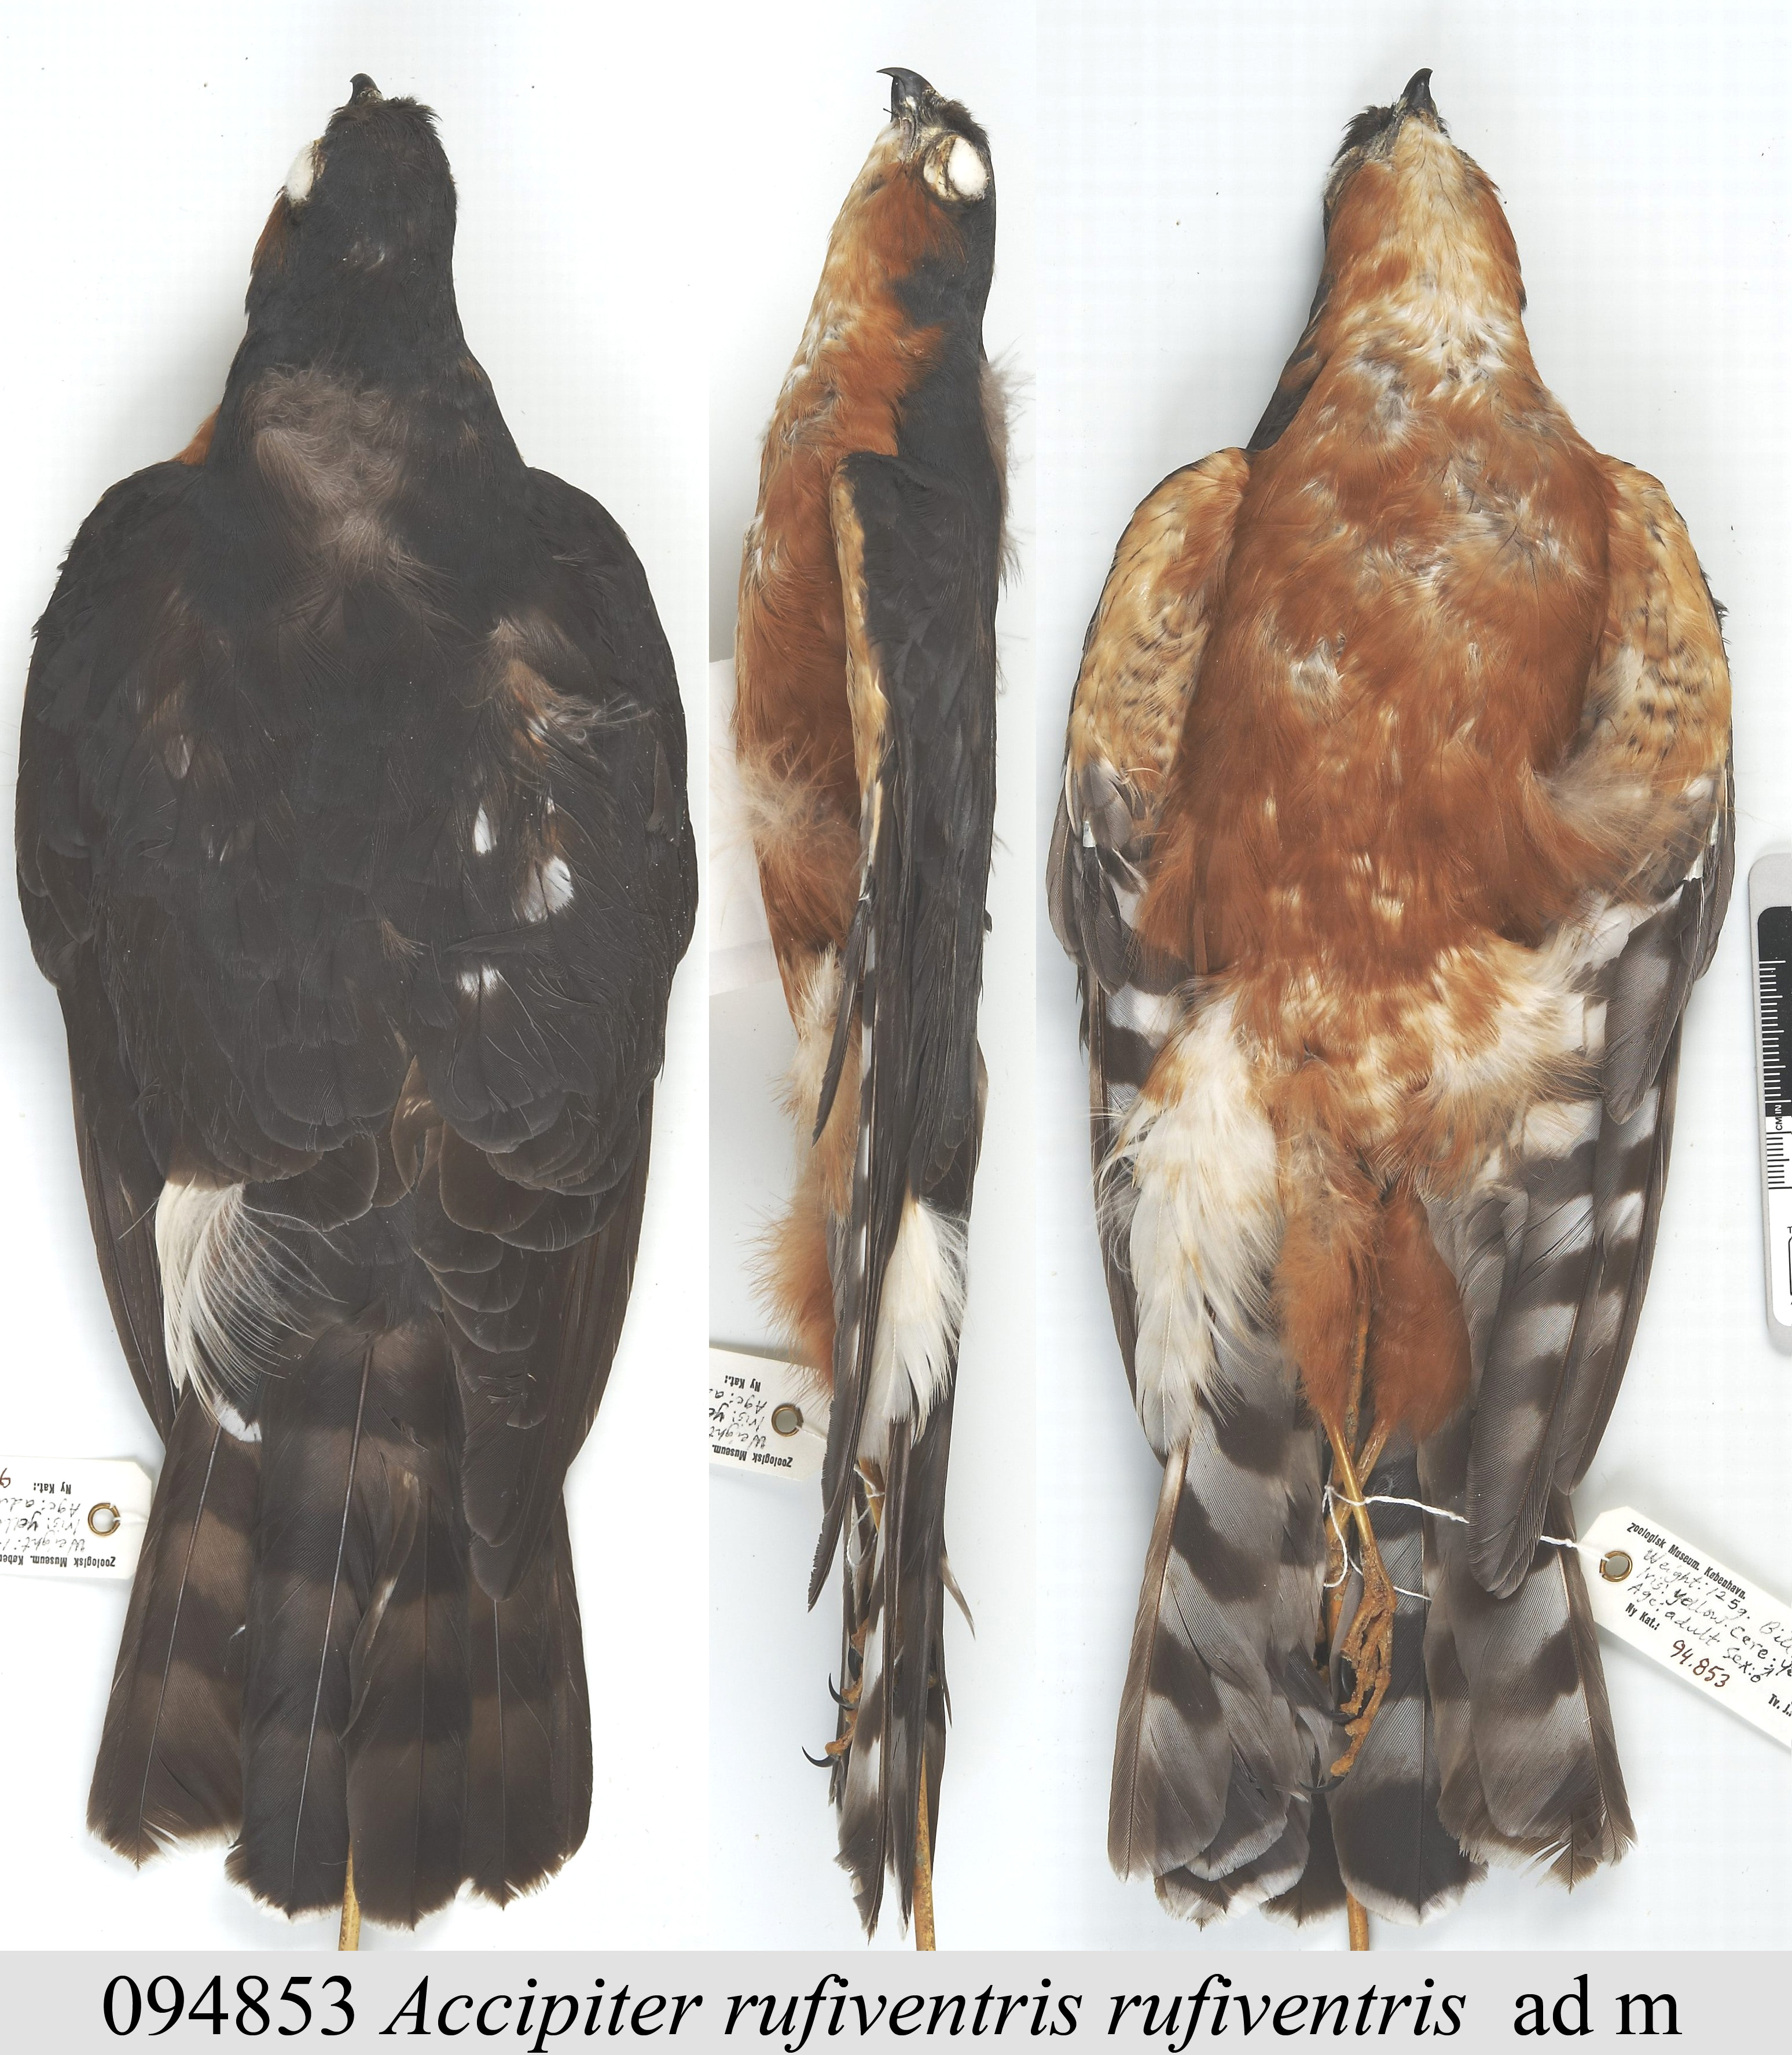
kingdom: Animalia
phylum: Chordata
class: Aves
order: Accipitriformes
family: Accipitridae
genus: Accipiter
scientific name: Accipiter rufiventris
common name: Rufous-breasted sparrowhawk
